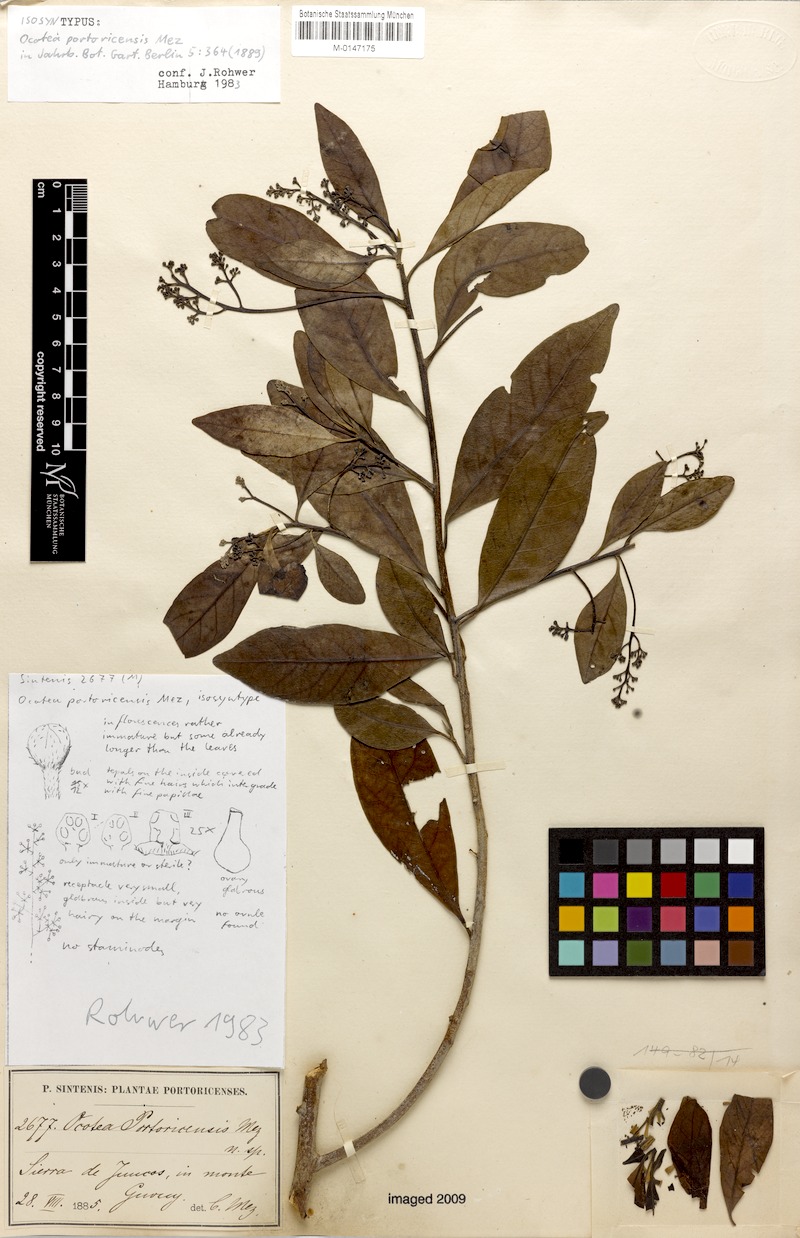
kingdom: Plantae
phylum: Tracheophyta
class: Magnoliopsida
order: Laurales
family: Lauraceae
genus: Ocotea
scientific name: Ocotea oblonga
